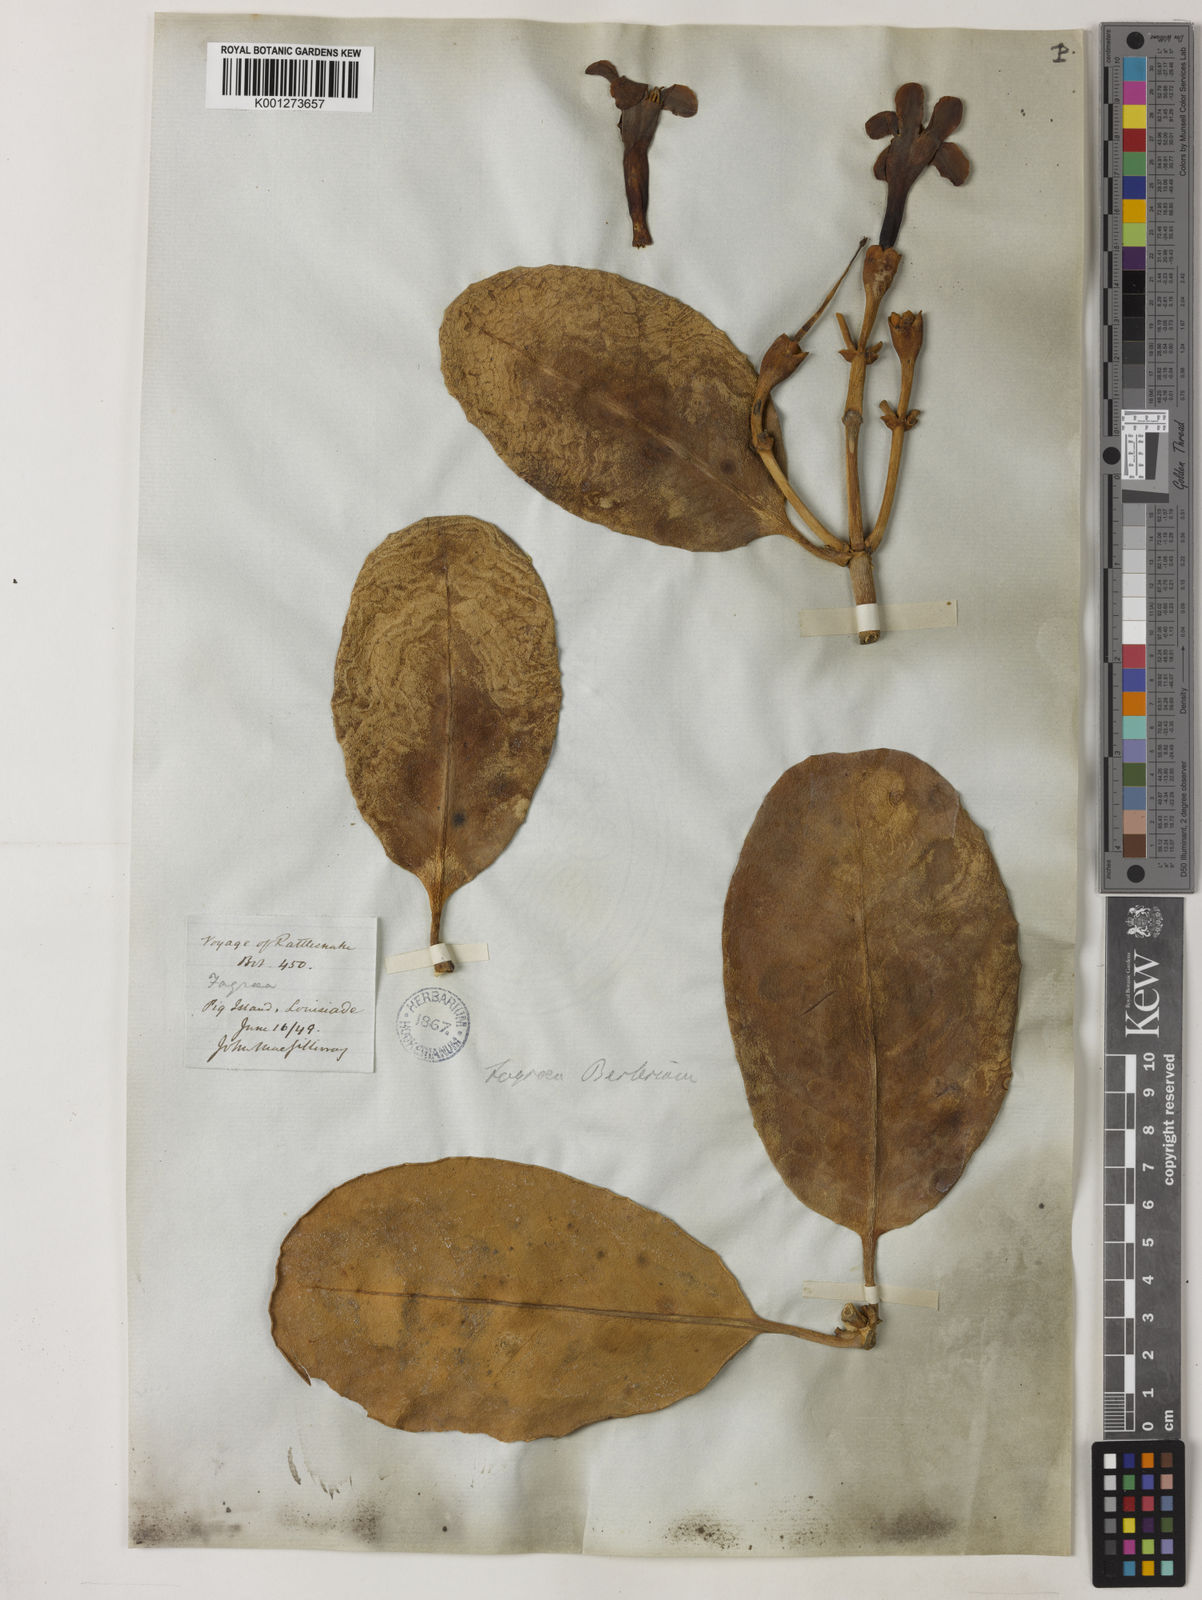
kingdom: Plantae
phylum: Tracheophyta
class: Magnoliopsida
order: Gentianales
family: Gentianaceae
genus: Fagraea
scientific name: Fagraea berteroana
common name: Cape jitta
